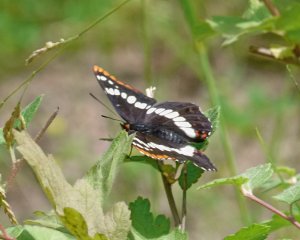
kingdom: Animalia
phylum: Arthropoda
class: Insecta
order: Lepidoptera
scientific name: Lepidoptera
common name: Butterflies
